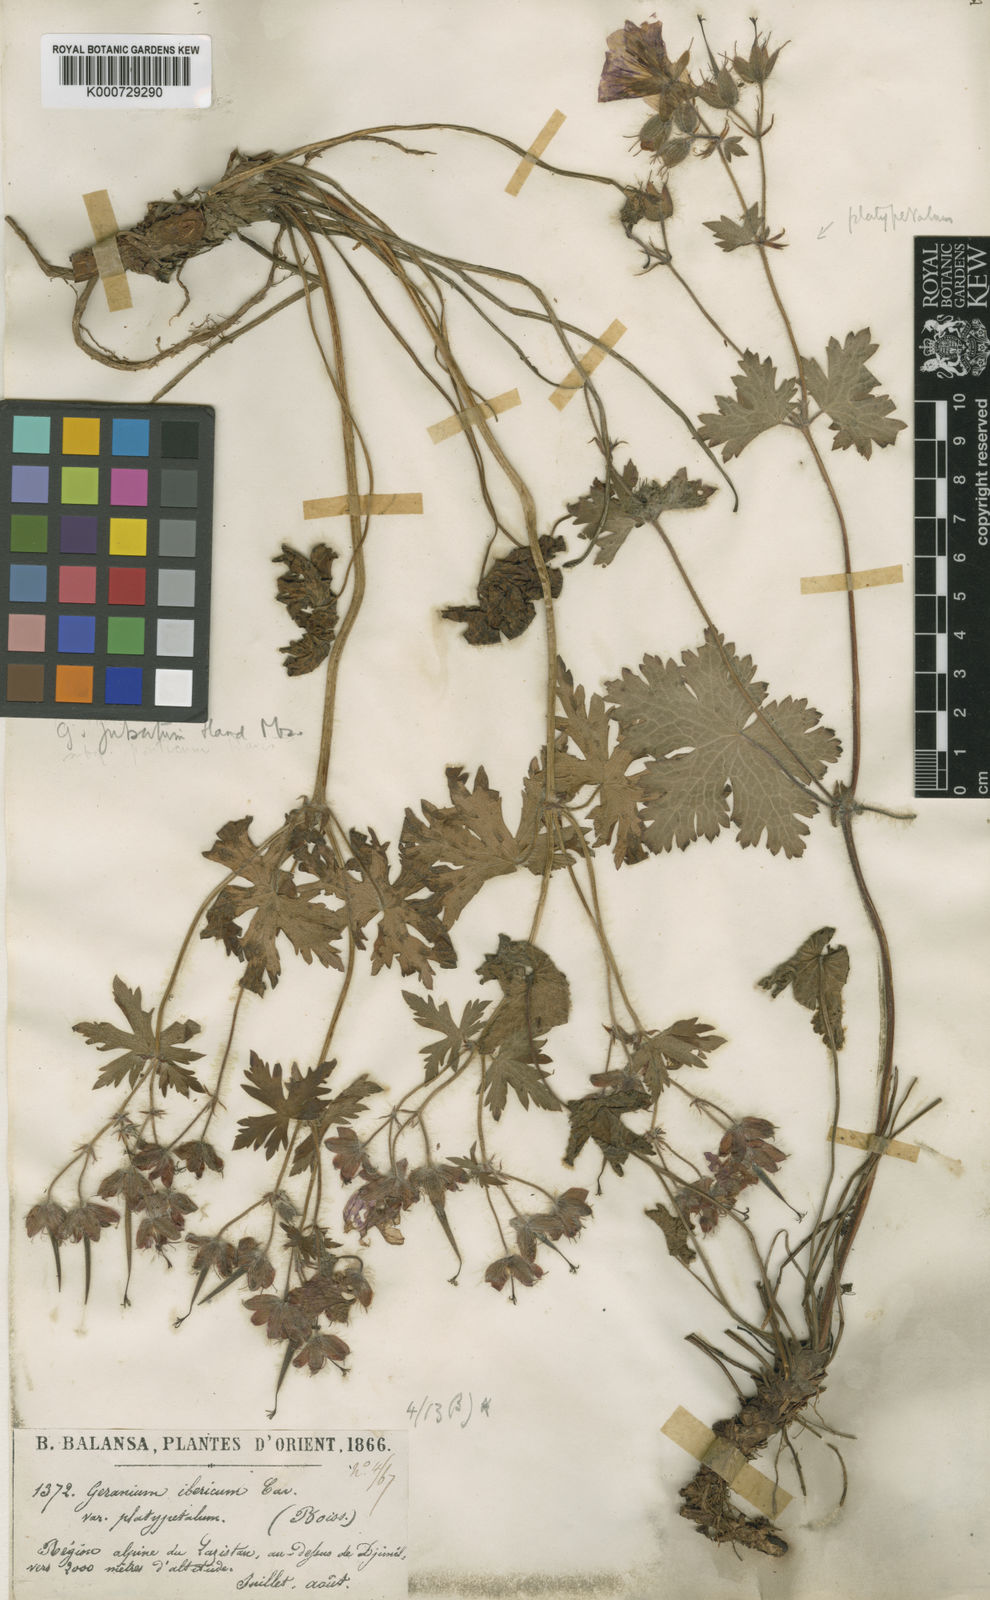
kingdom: Plantae
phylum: Tracheophyta
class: Magnoliopsida
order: Geraniales
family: Geraniaceae
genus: Geranium
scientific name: Geranium platypetalum
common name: Glandular crane's-bill
